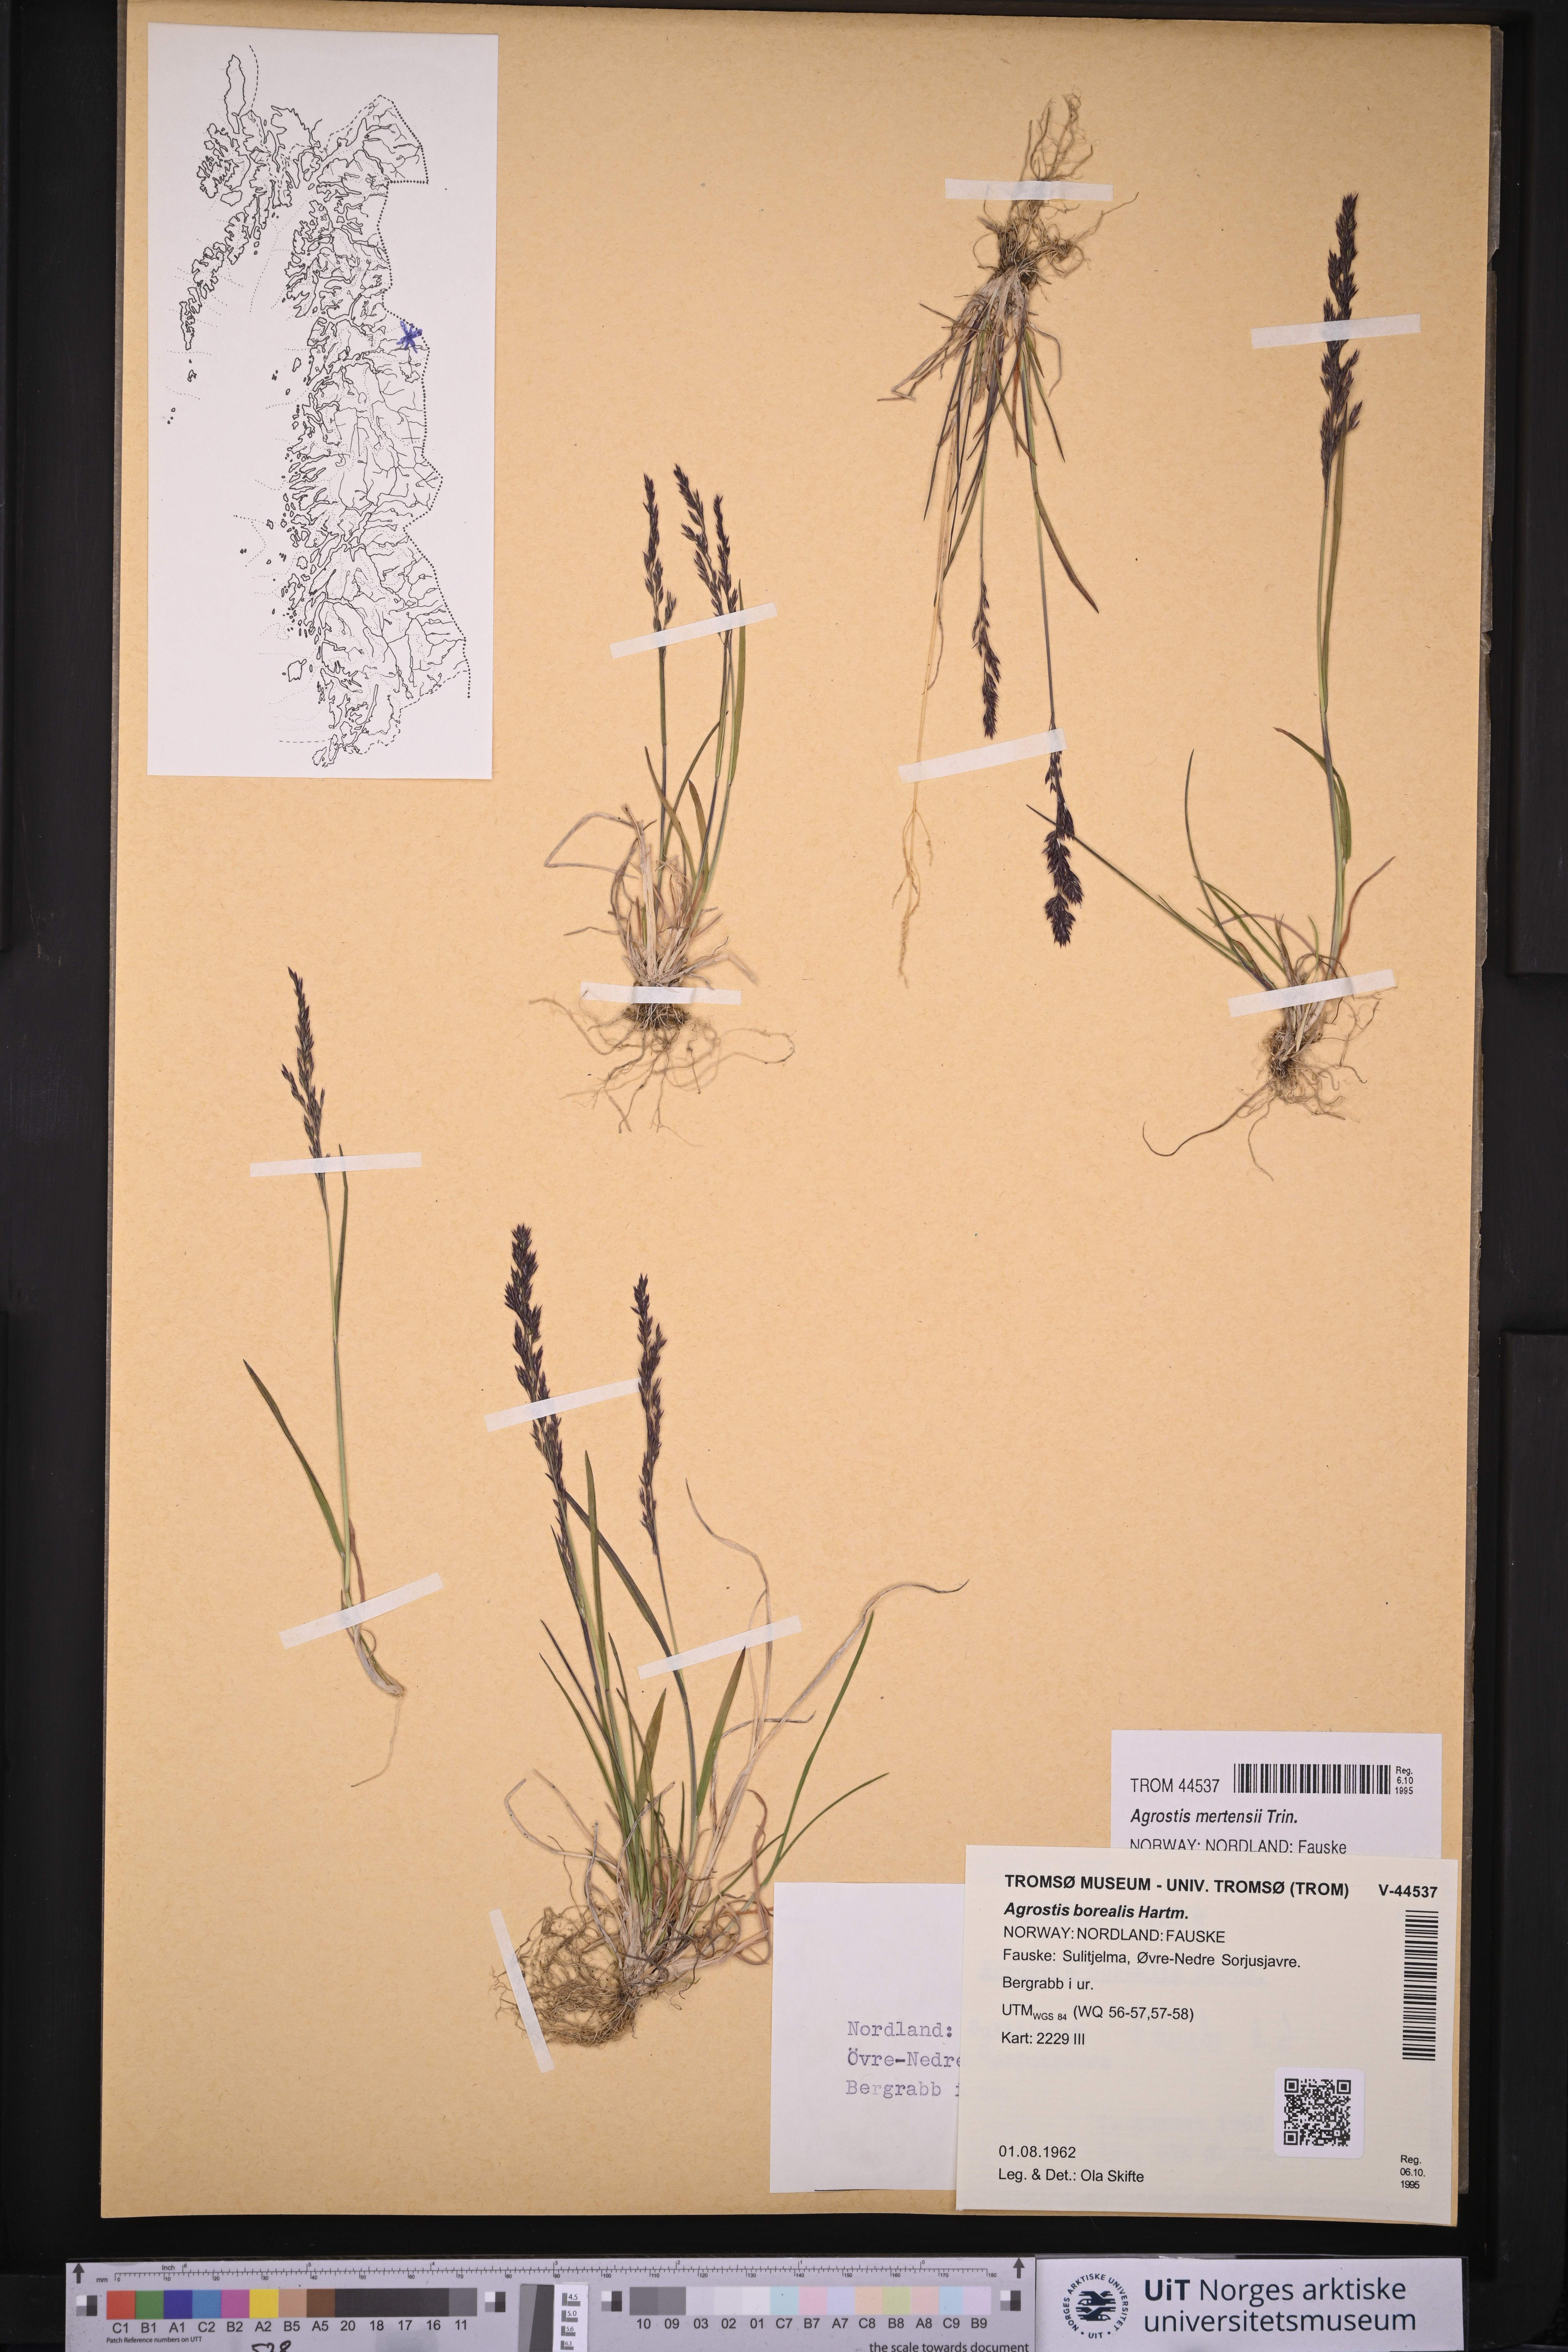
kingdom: Plantae
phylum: Tracheophyta
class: Liliopsida
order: Poales
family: Poaceae
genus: Agrostis
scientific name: Agrostis mertensii
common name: Northern bent
